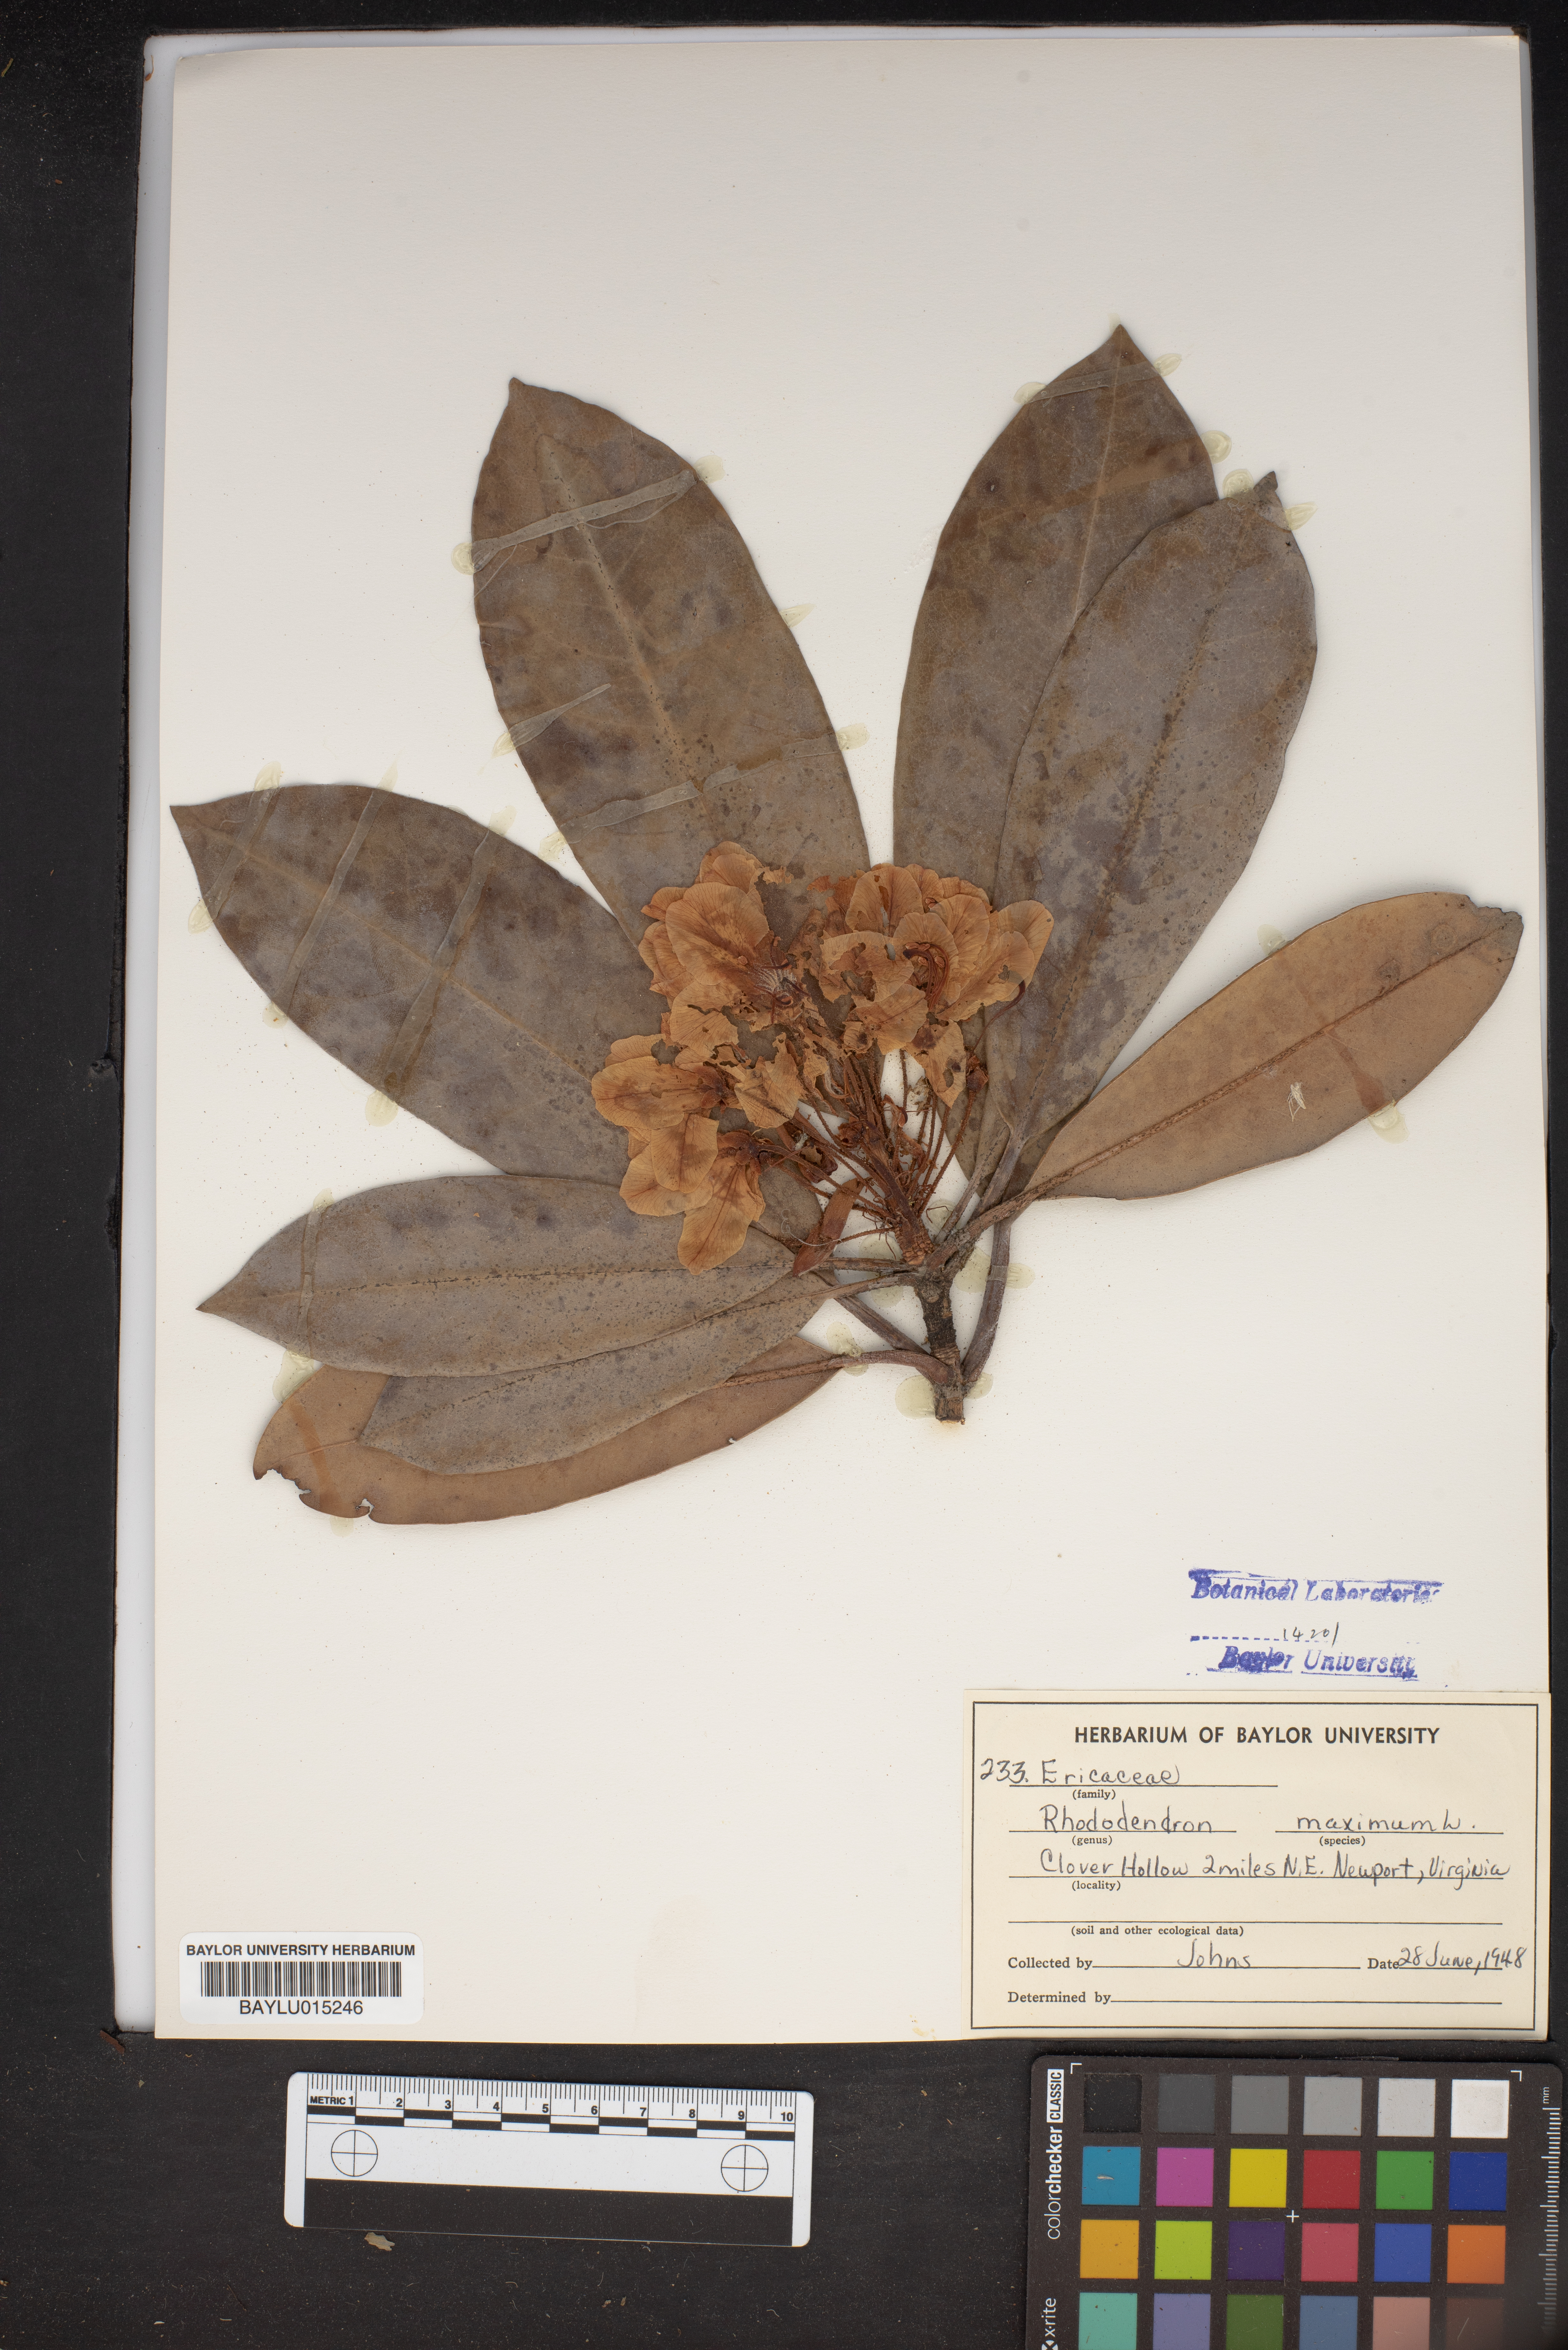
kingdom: Plantae
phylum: Tracheophyta
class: Magnoliopsida
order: Ericales
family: Ericaceae
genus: Rhododendron
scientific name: Rhododendron maximum
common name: Great rhododendron
